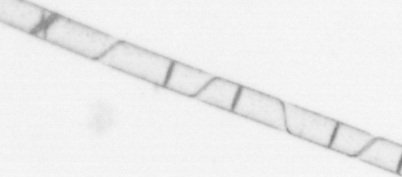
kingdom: Chromista
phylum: Ochrophyta
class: Bacillariophyceae
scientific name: Bacillariophyceae
